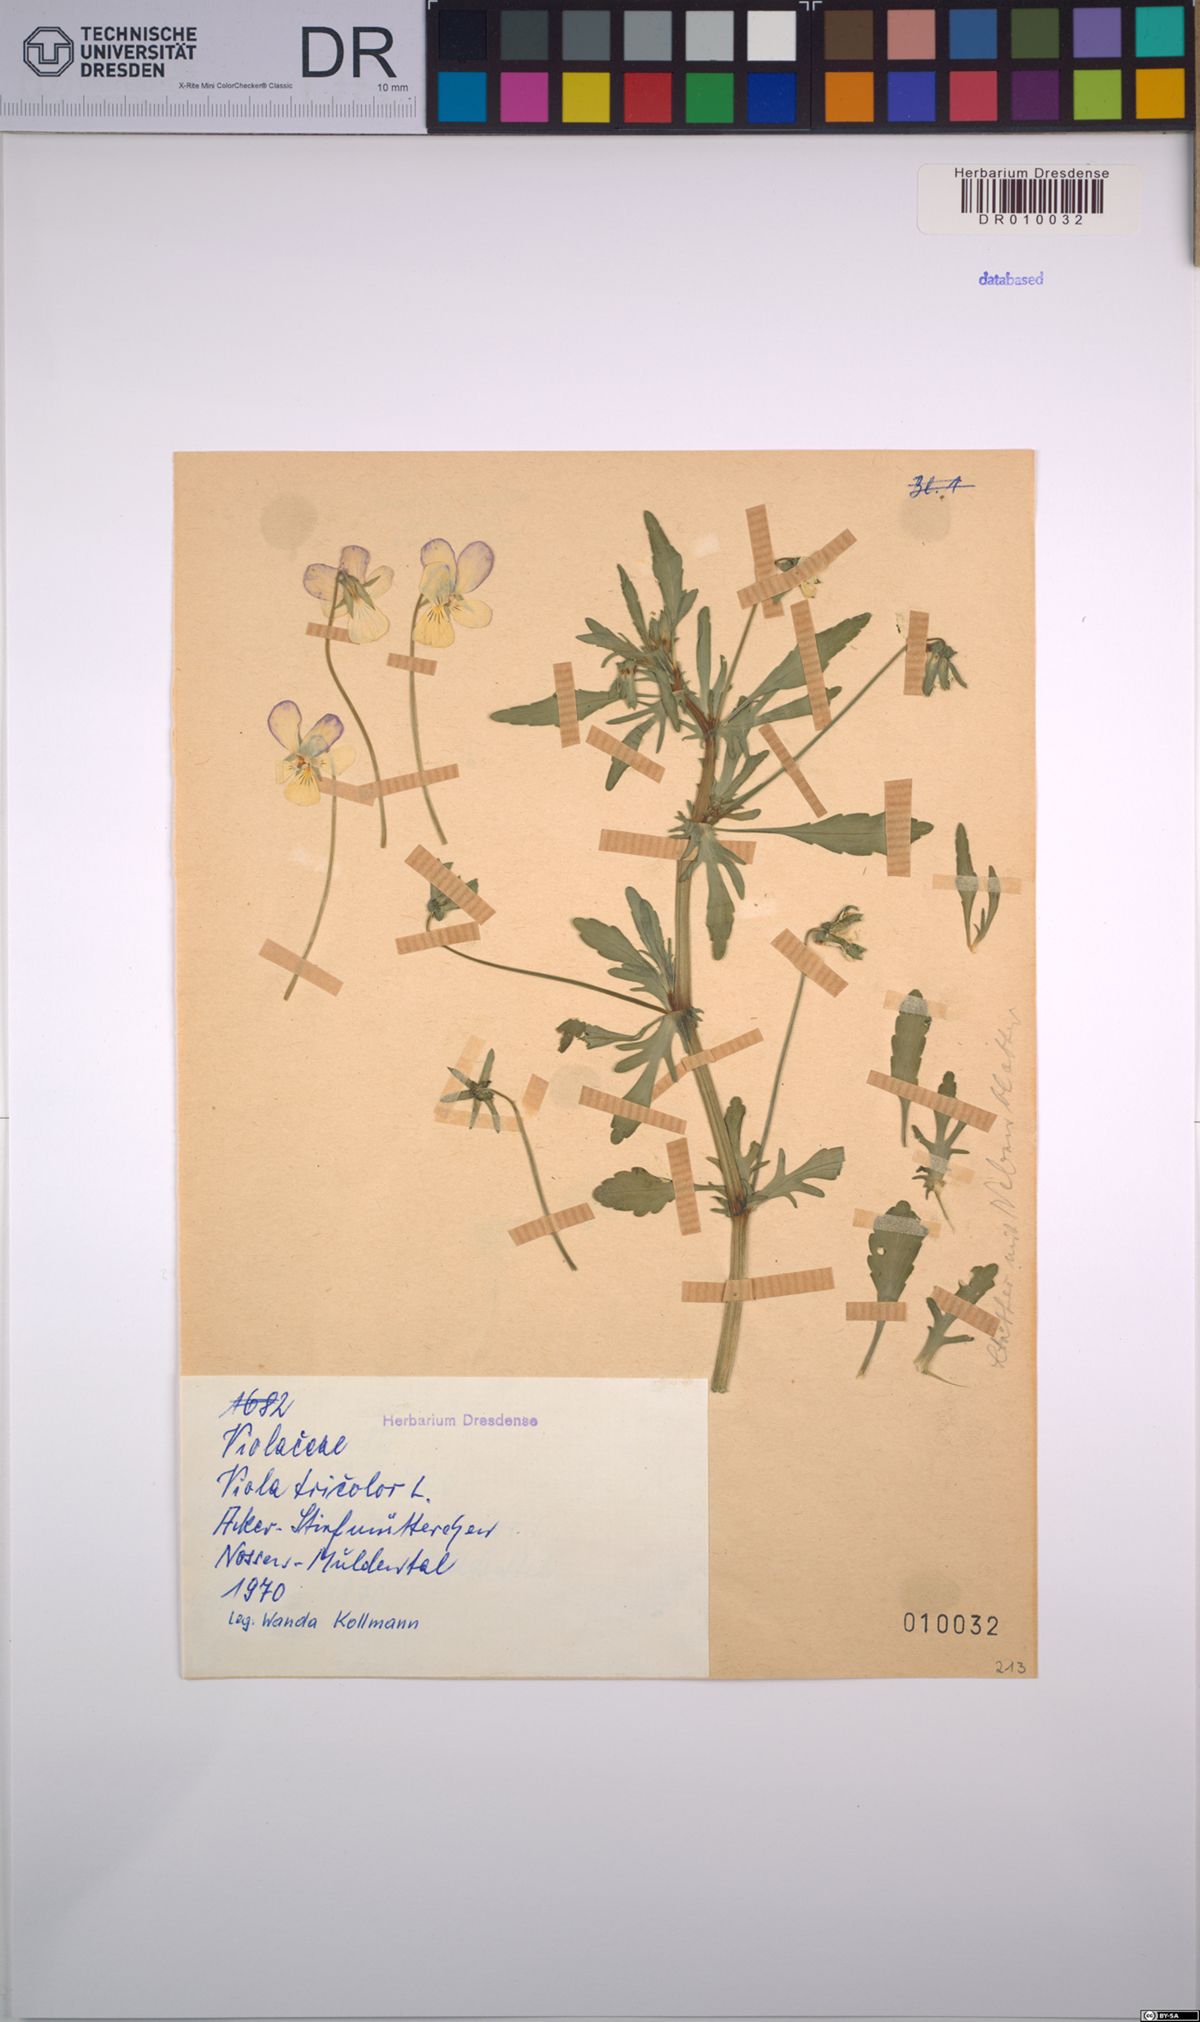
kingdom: Plantae
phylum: Tracheophyta
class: Magnoliopsida
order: Malpighiales
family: Violaceae
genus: Viola
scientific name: Viola tricolor
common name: Pansy
